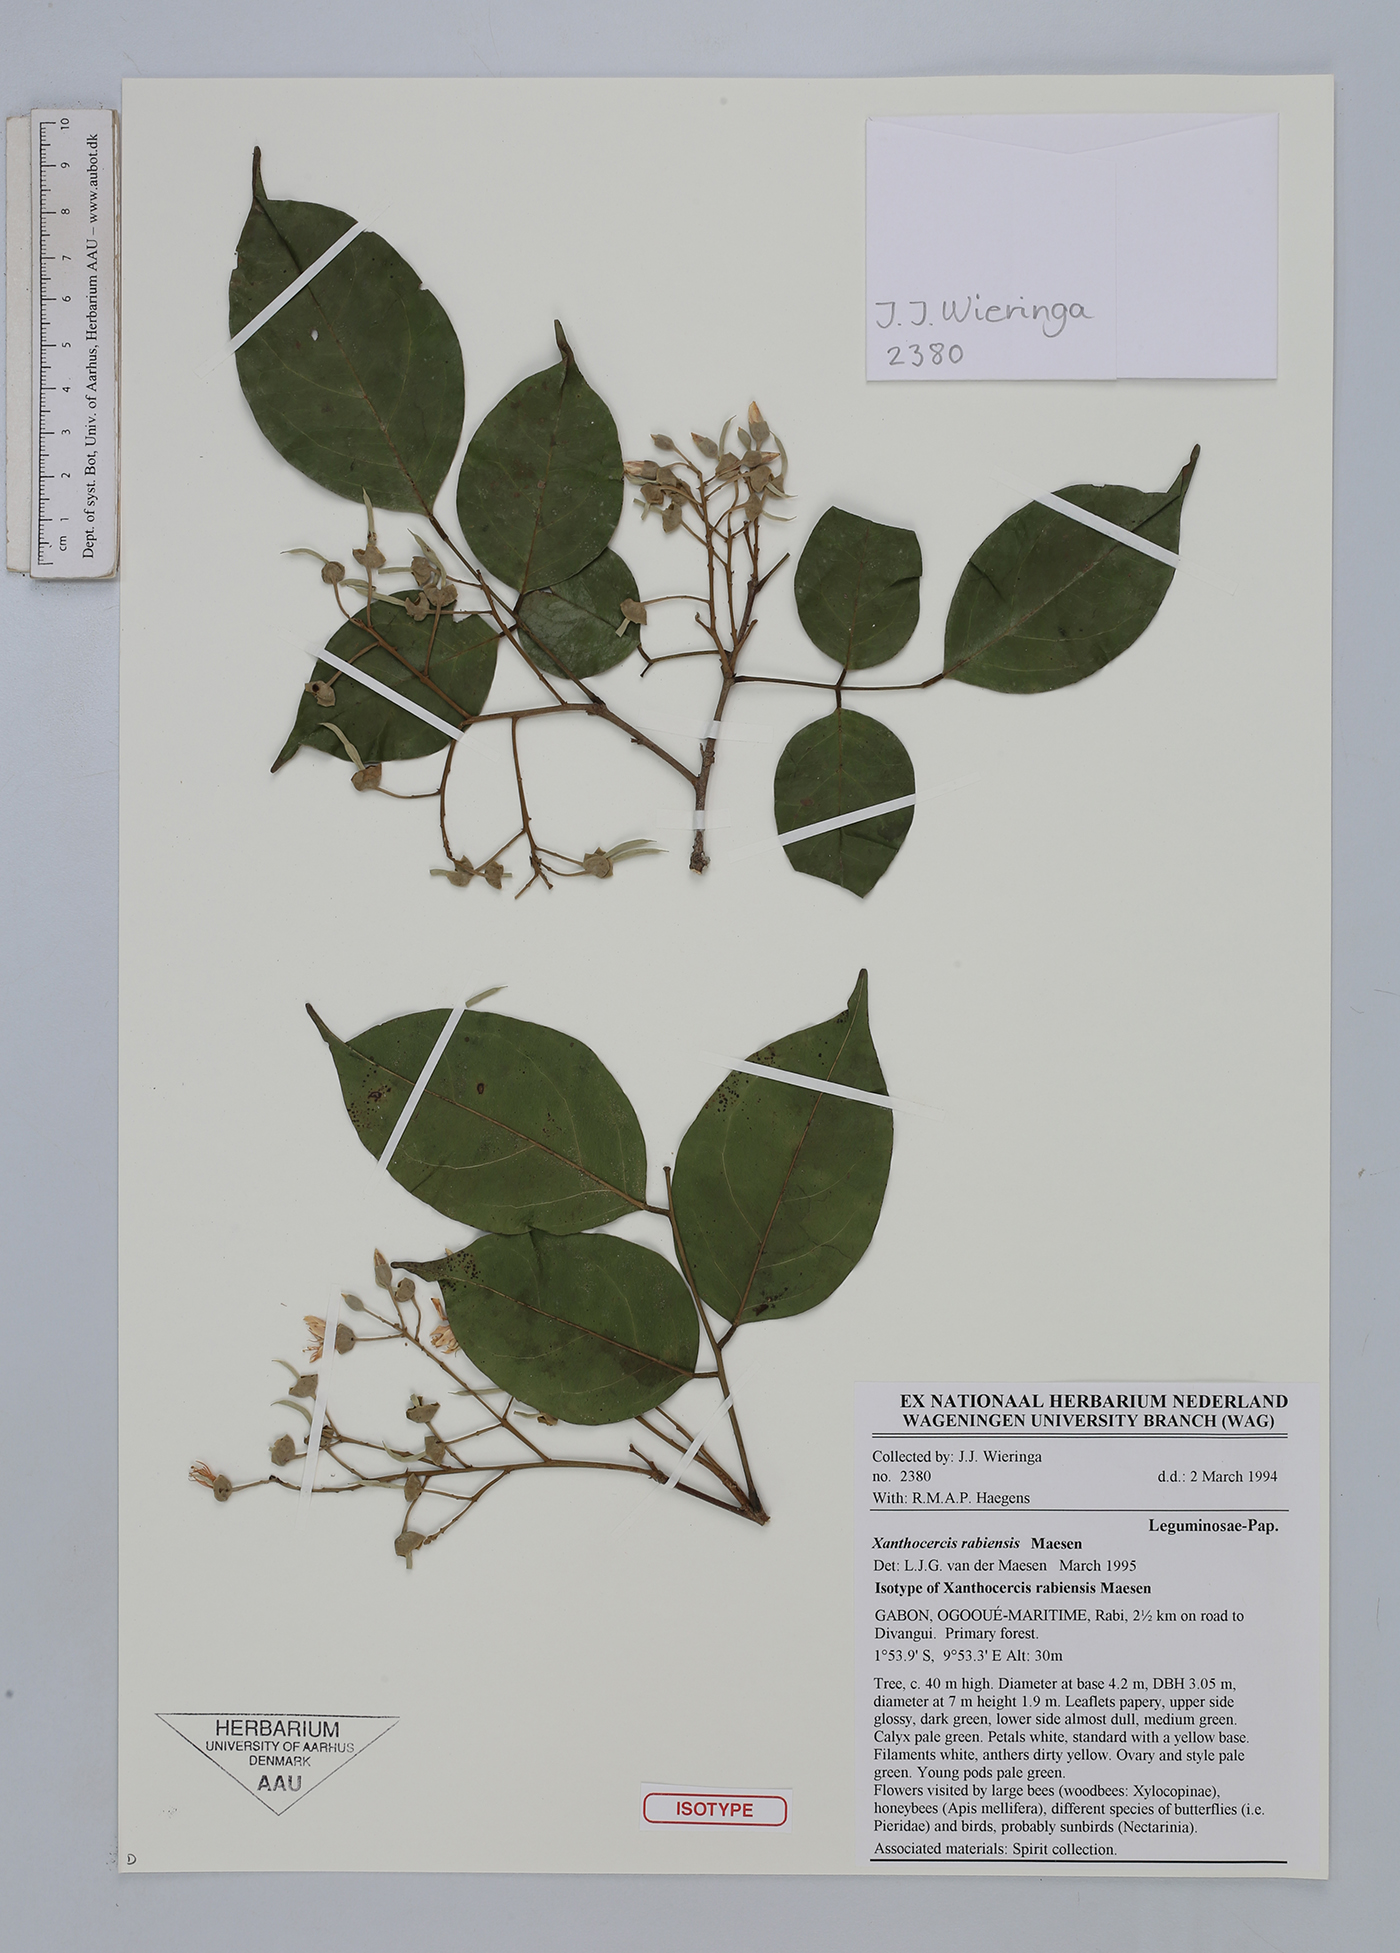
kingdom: Plantae
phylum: Tracheophyta
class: Magnoliopsida
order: Fabales
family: Fabaceae
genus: Xanthocercis
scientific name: Xanthocercis rabiensis
